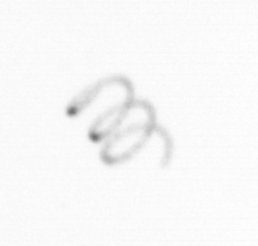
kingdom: Chromista
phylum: Ochrophyta
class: Bacillariophyceae
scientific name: Bacillariophyceae
